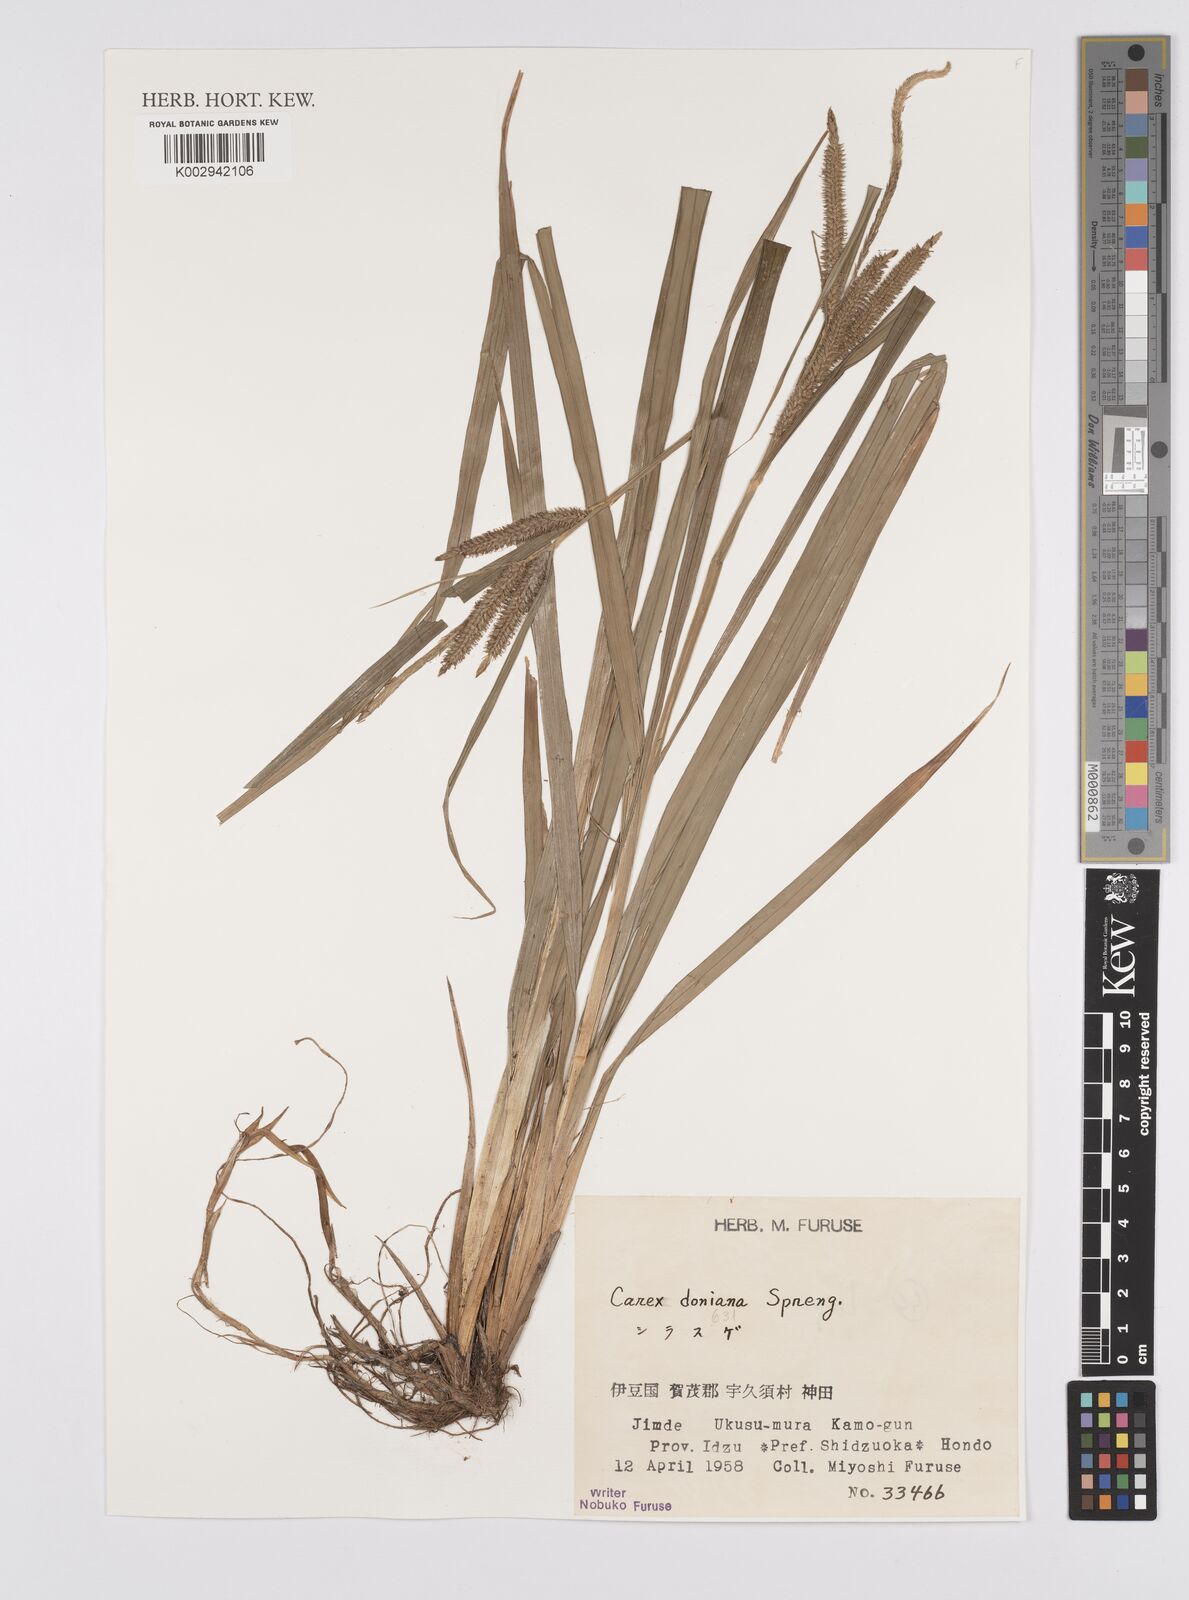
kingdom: Plantae
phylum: Tracheophyta
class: Liliopsida
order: Poales
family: Cyperaceae
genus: Carex
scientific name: Carex japonica
